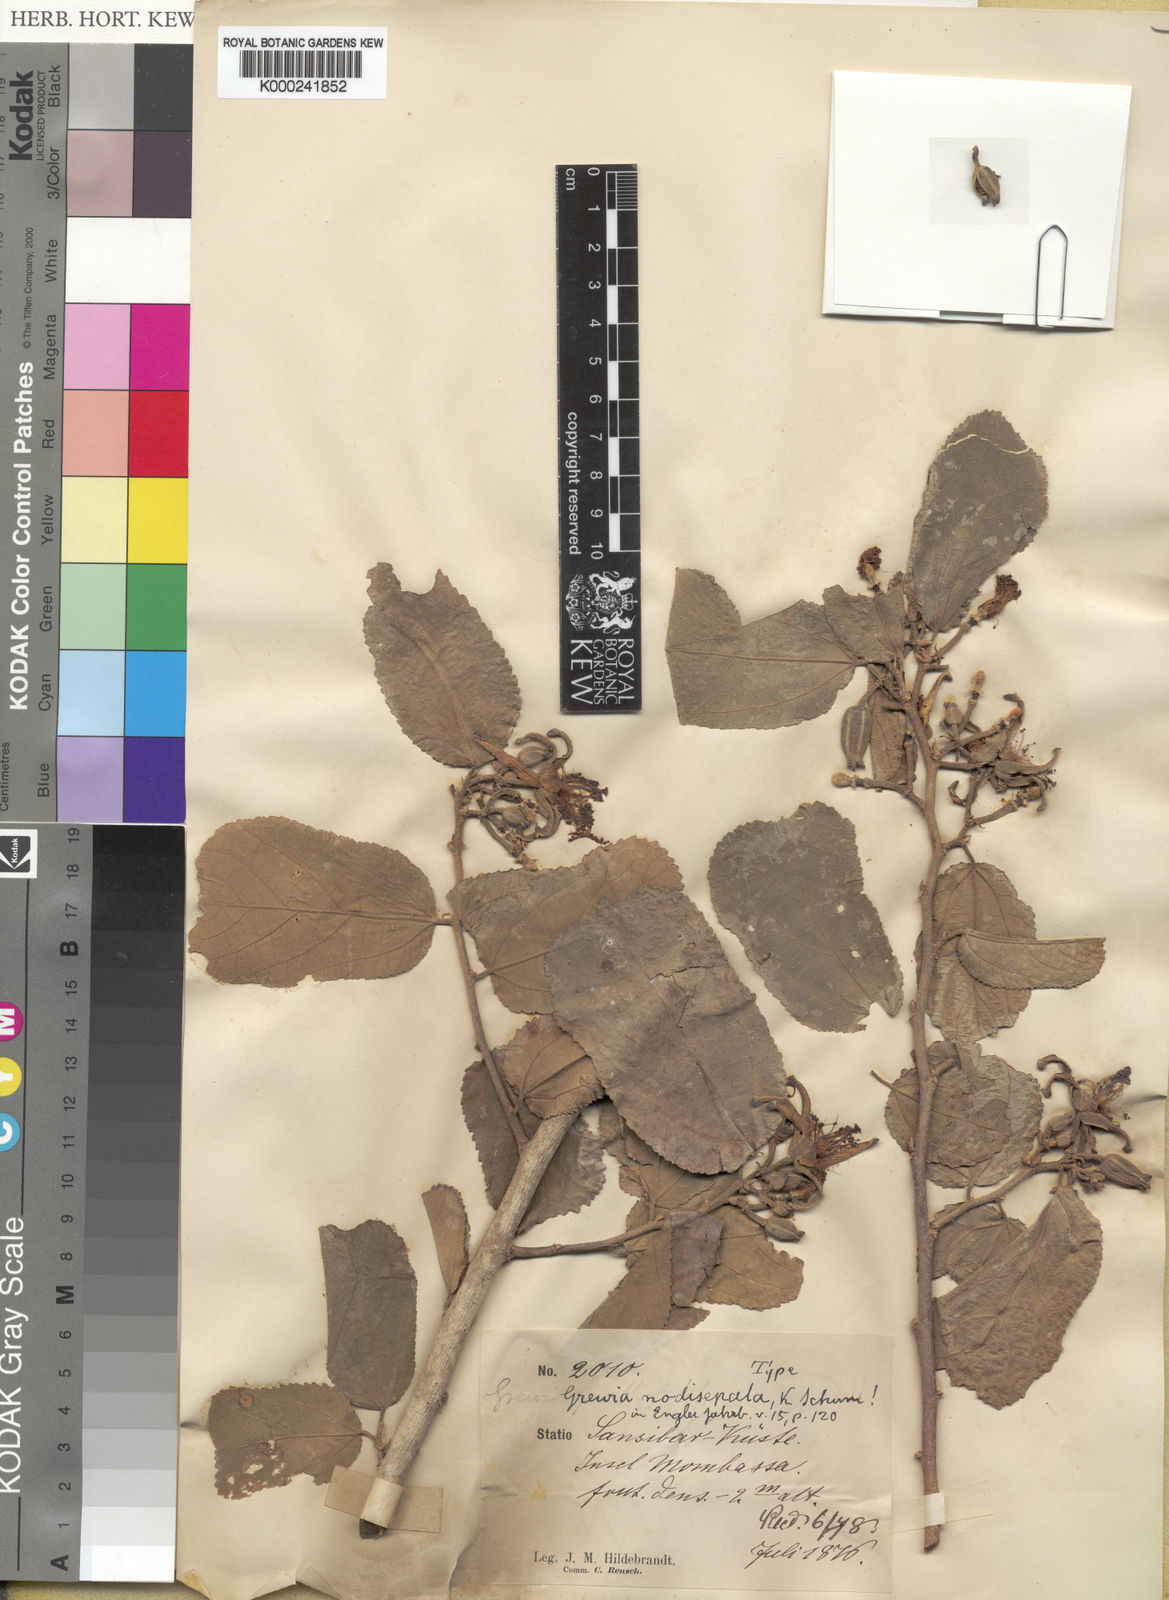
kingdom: Plantae
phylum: Tracheophyta
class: Magnoliopsida
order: Malvales
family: Malvaceae
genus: Grewia
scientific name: Grewia truncata
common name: Mdomoko
